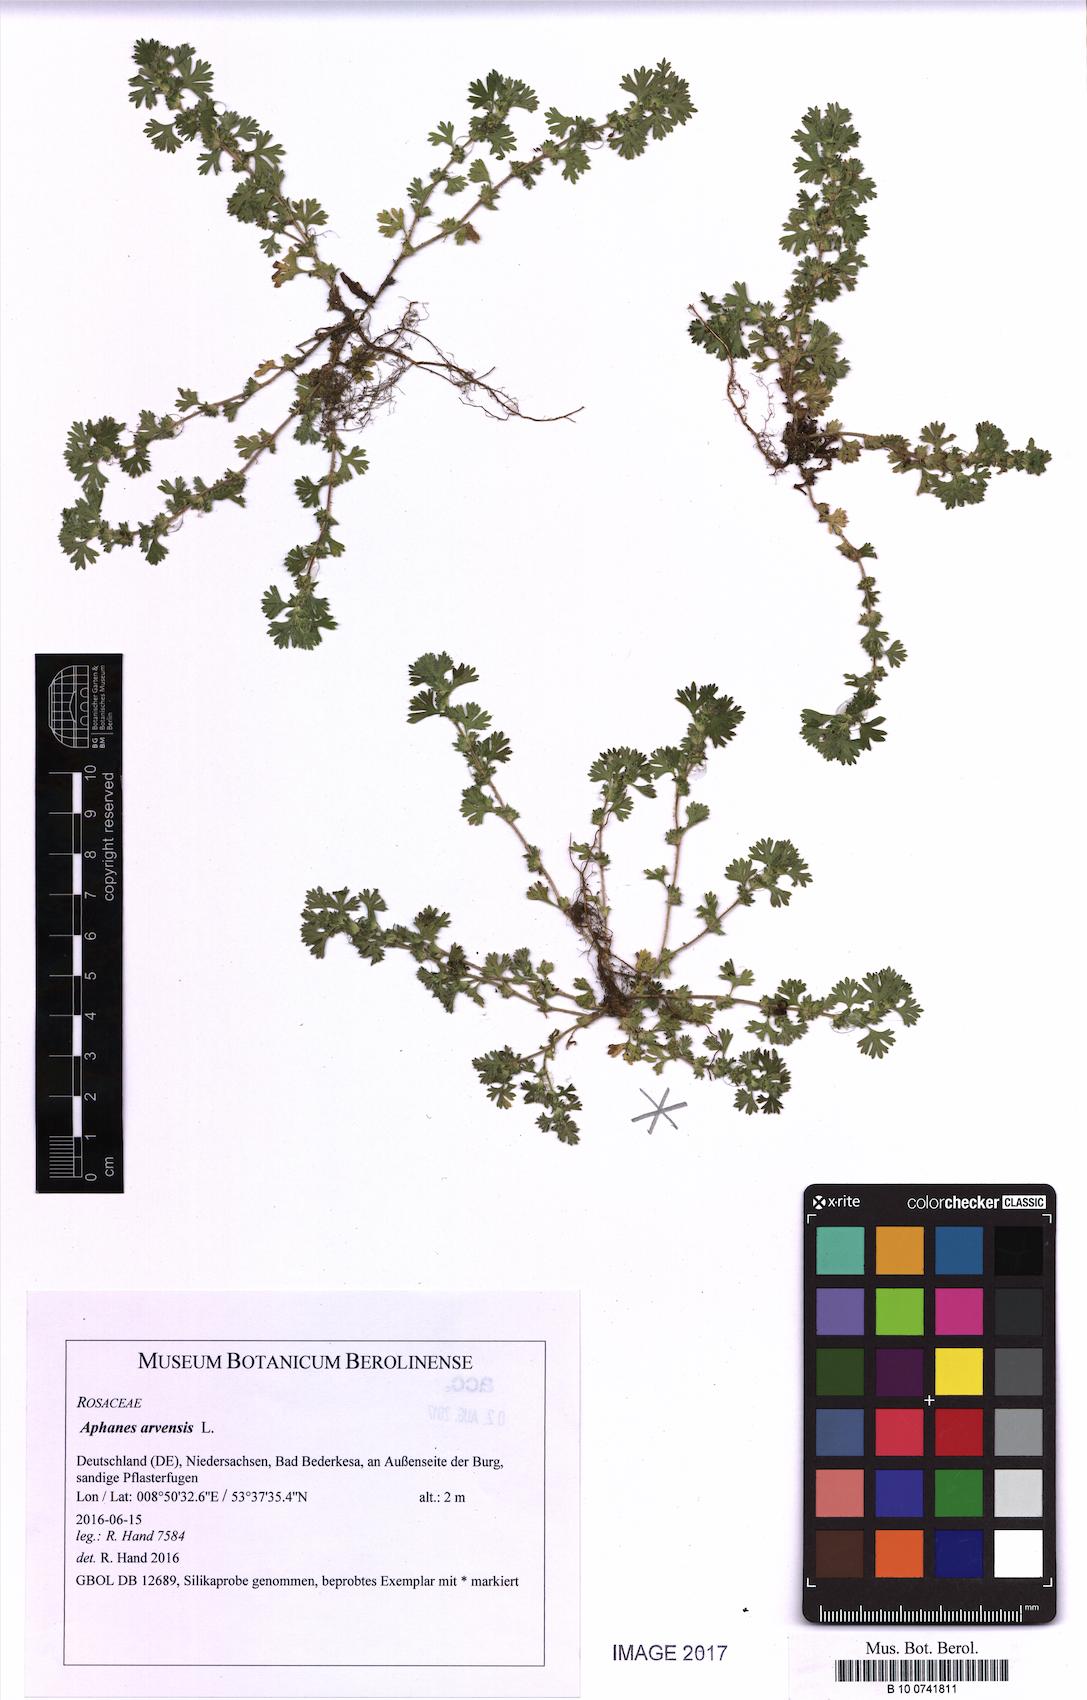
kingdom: Plantae
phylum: Tracheophyta
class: Magnoliopsida
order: Rosales
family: Rosaceae
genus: Aphanes
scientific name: Aphanes arvensis
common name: Parsley-piert
